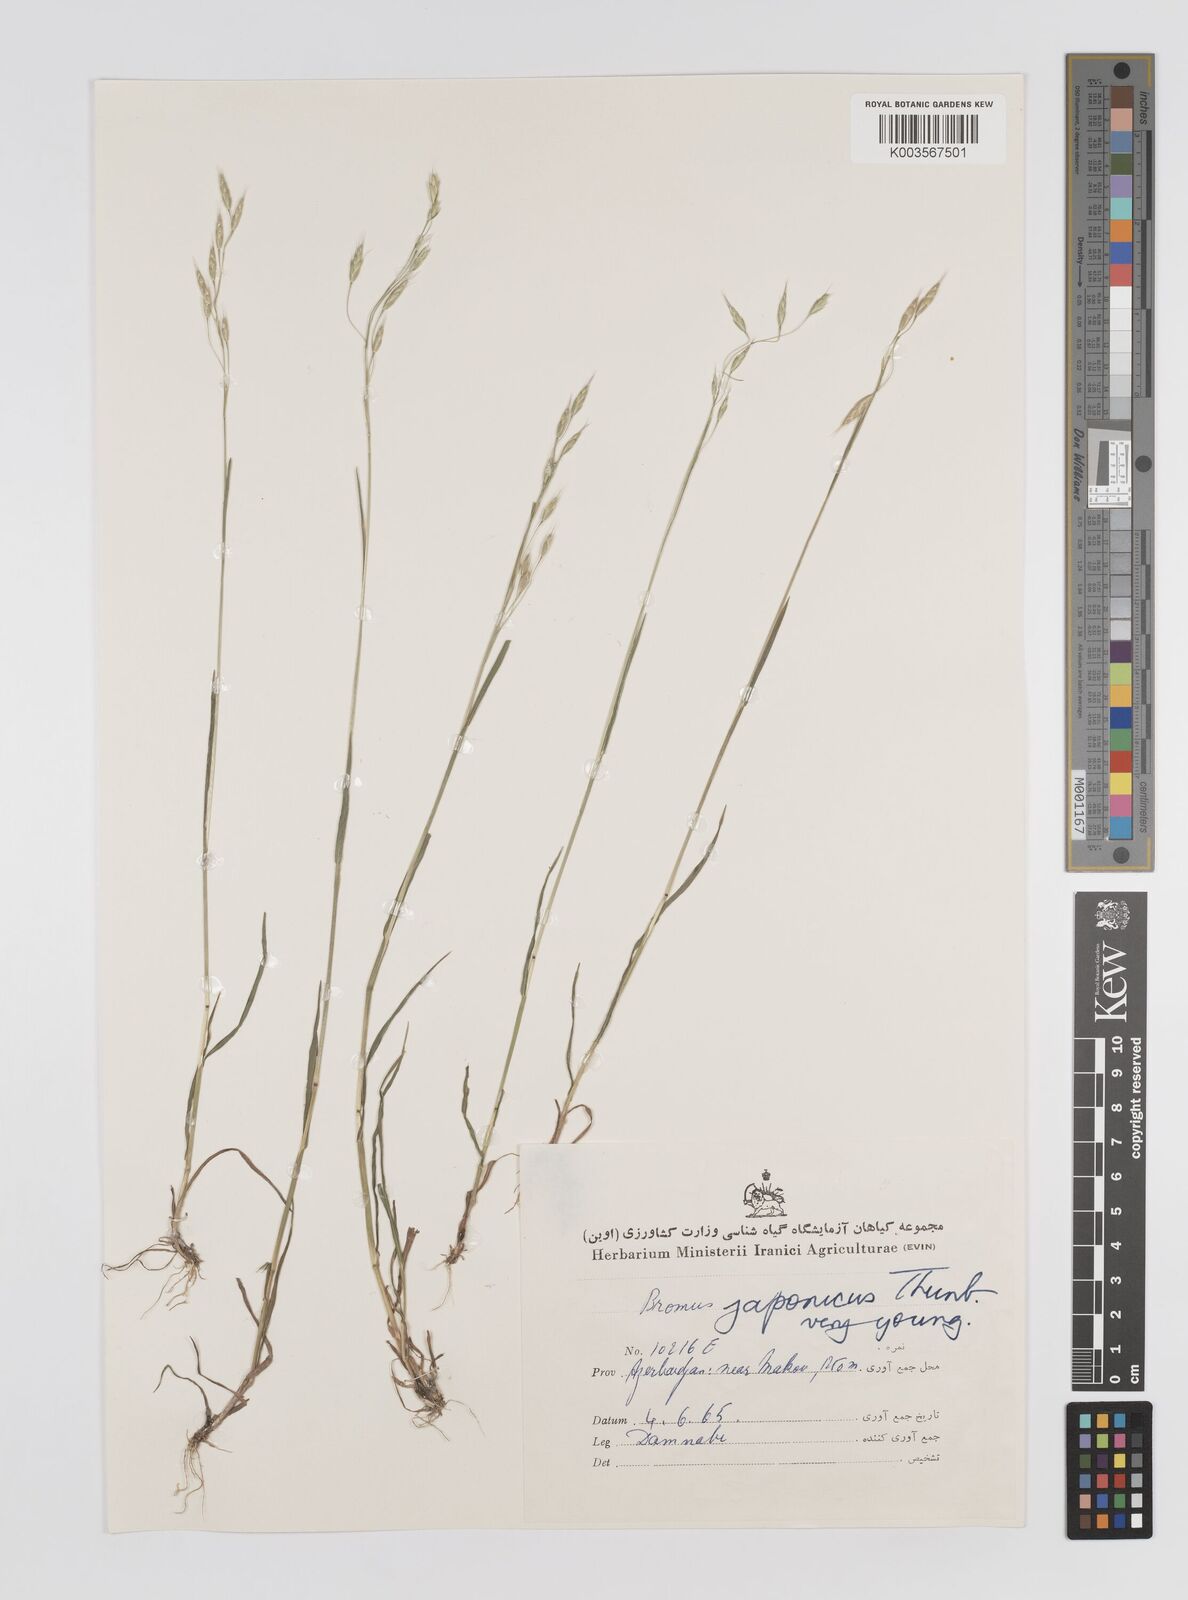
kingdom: Plantae
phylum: Tracheophyta
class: Liliopsida
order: Poales
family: Poaceae
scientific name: Poaceae
